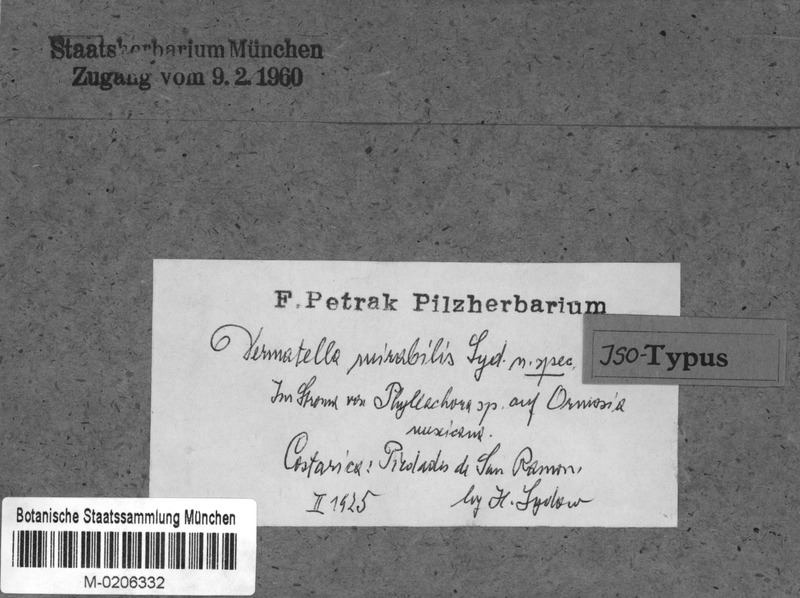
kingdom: Fungi
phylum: Ascomycota
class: Leotiomycetes
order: Helotiales
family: Dermateaceae
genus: Dermatella
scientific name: Dermatella mirabilis
